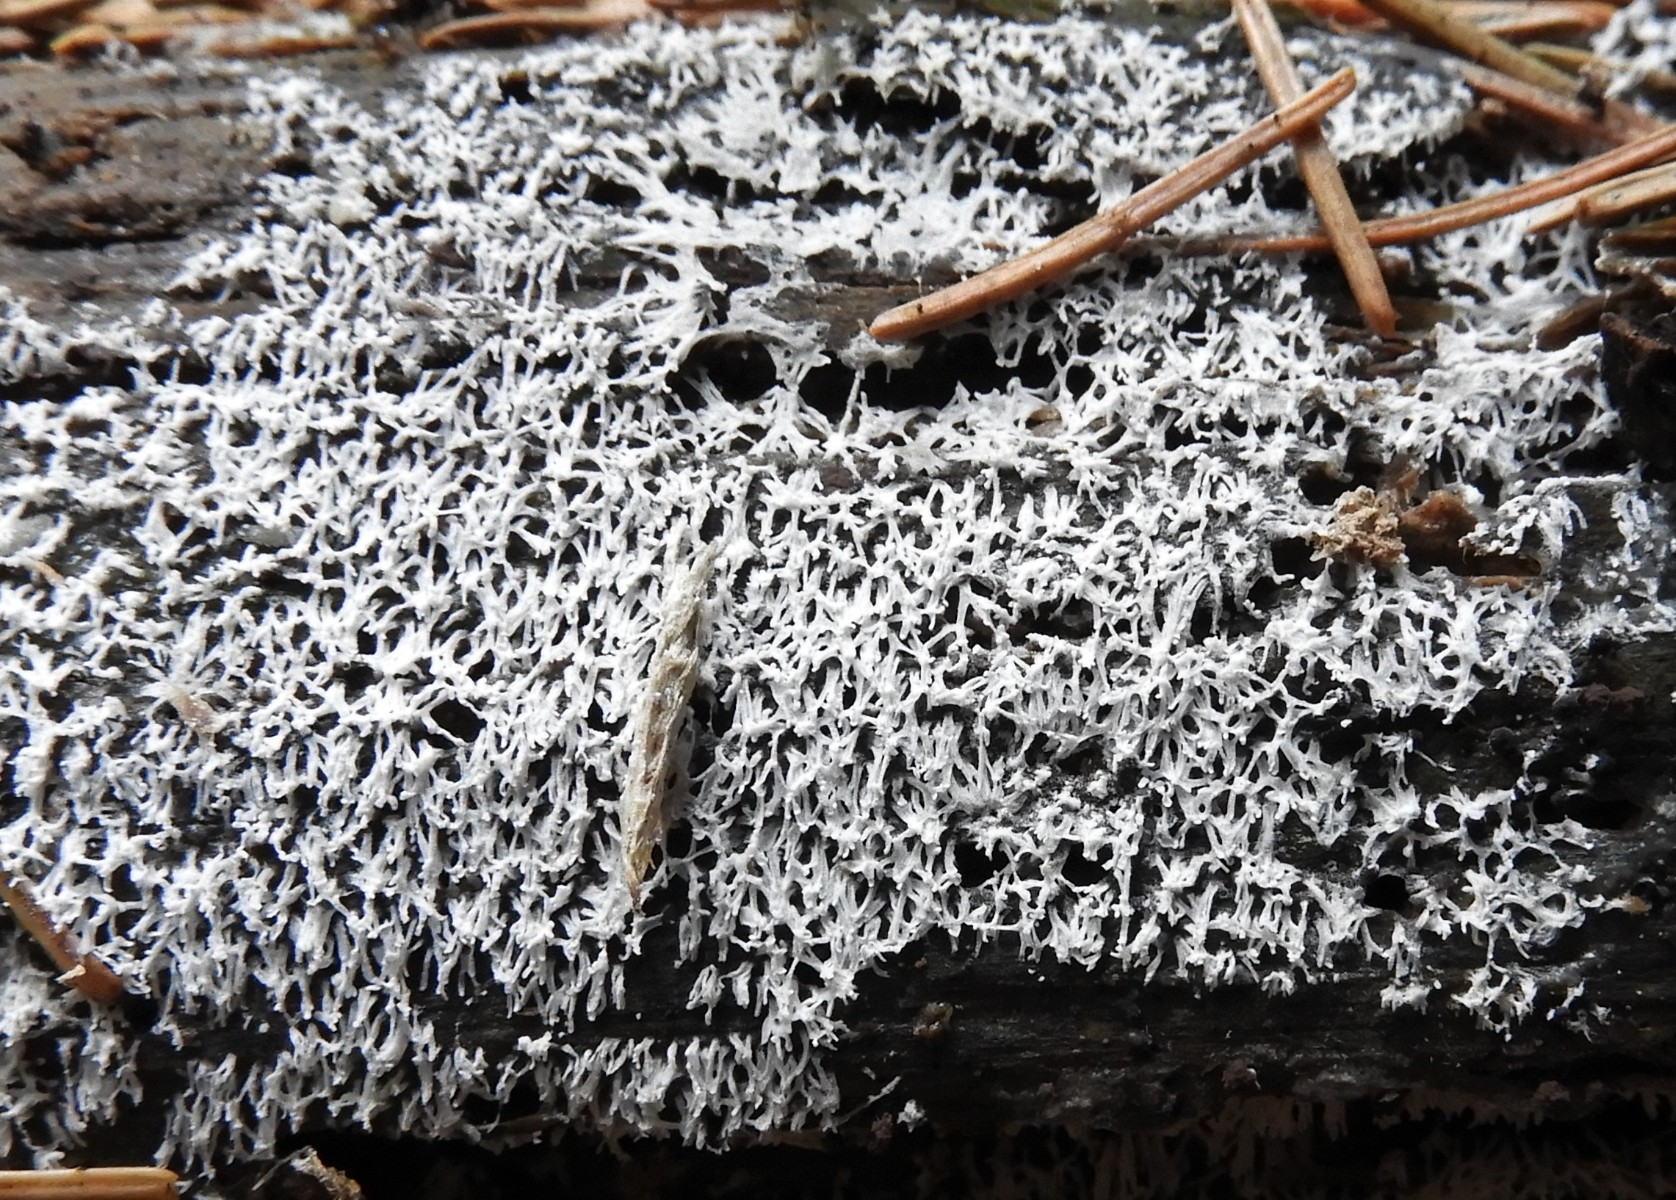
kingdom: Protozoa
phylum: Mycetozoa
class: Protosteliomycetes
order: Ceratiomyxales
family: Ceratiomyxaceae
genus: Ceratiomyxa
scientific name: Ceratiomyxa fruticulosa
